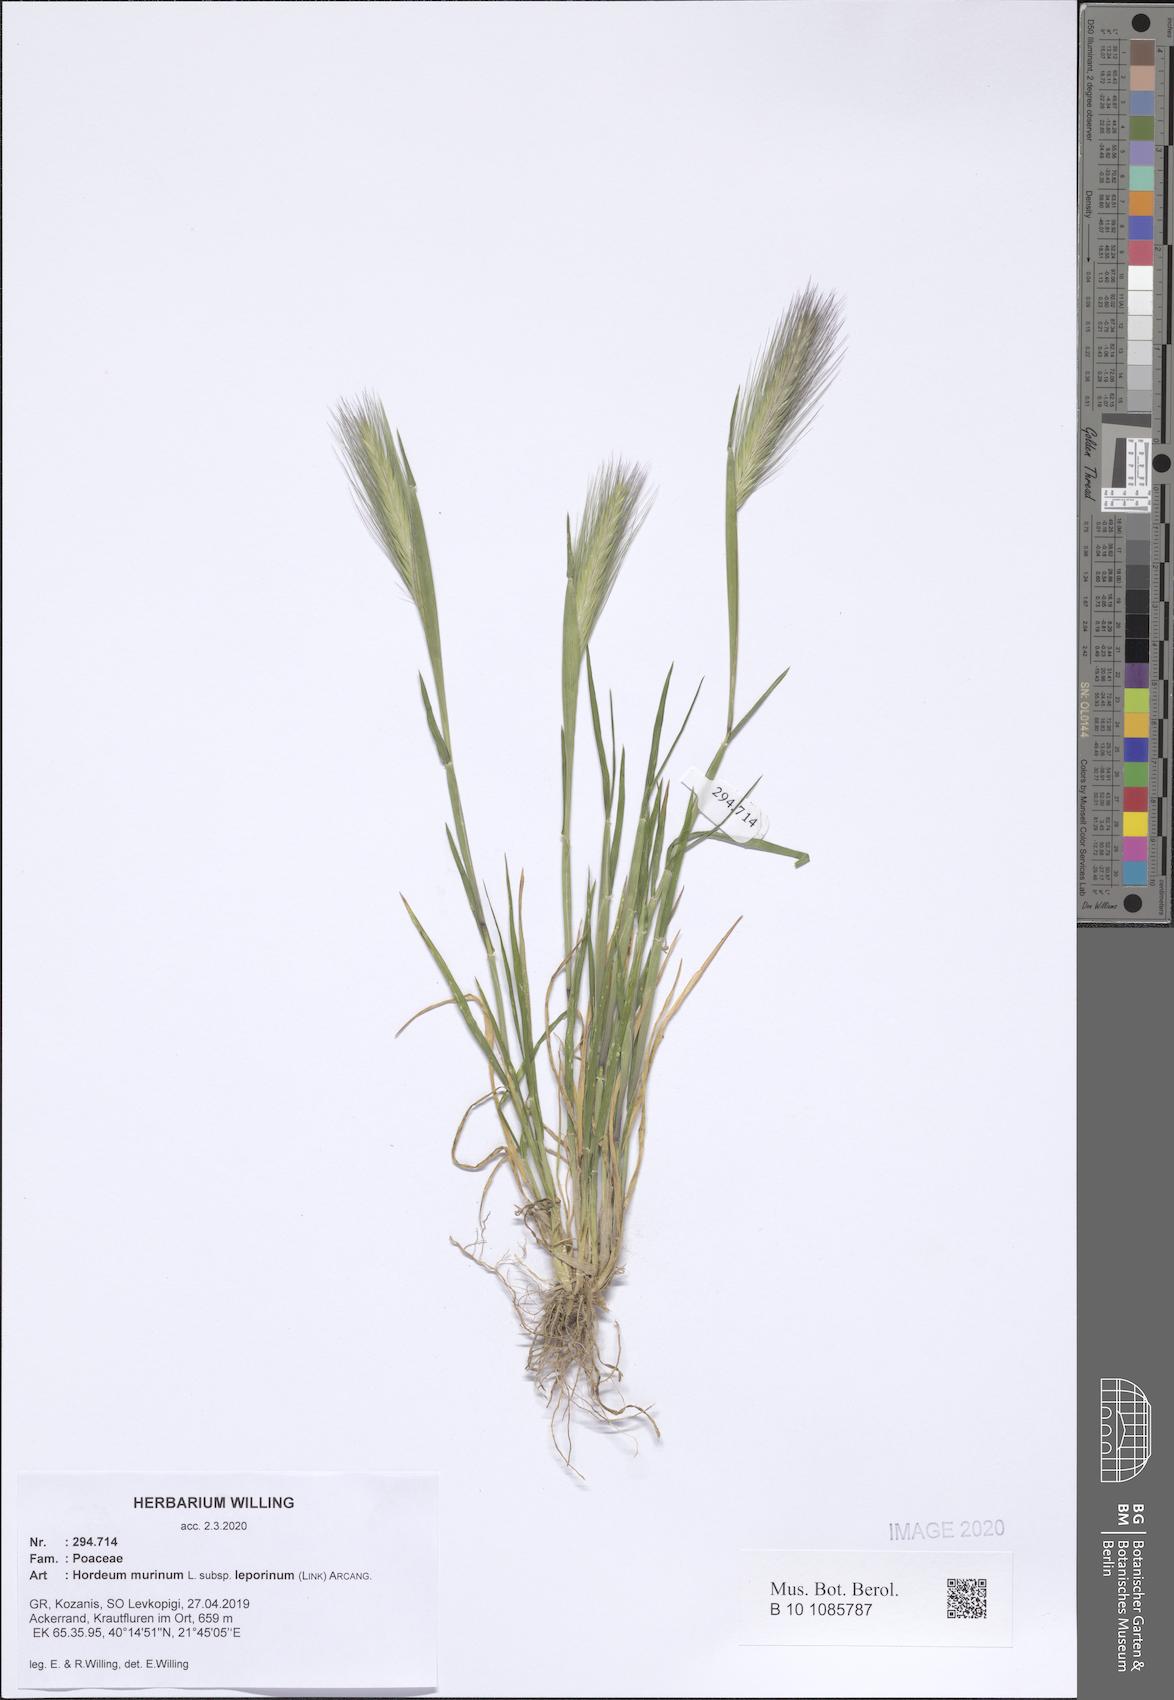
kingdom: Plantae
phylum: Tracheophyta
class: Liliopsida
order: Poales
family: Poaceae
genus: Hordeum
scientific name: Hordeum murinum
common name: Wall barley
